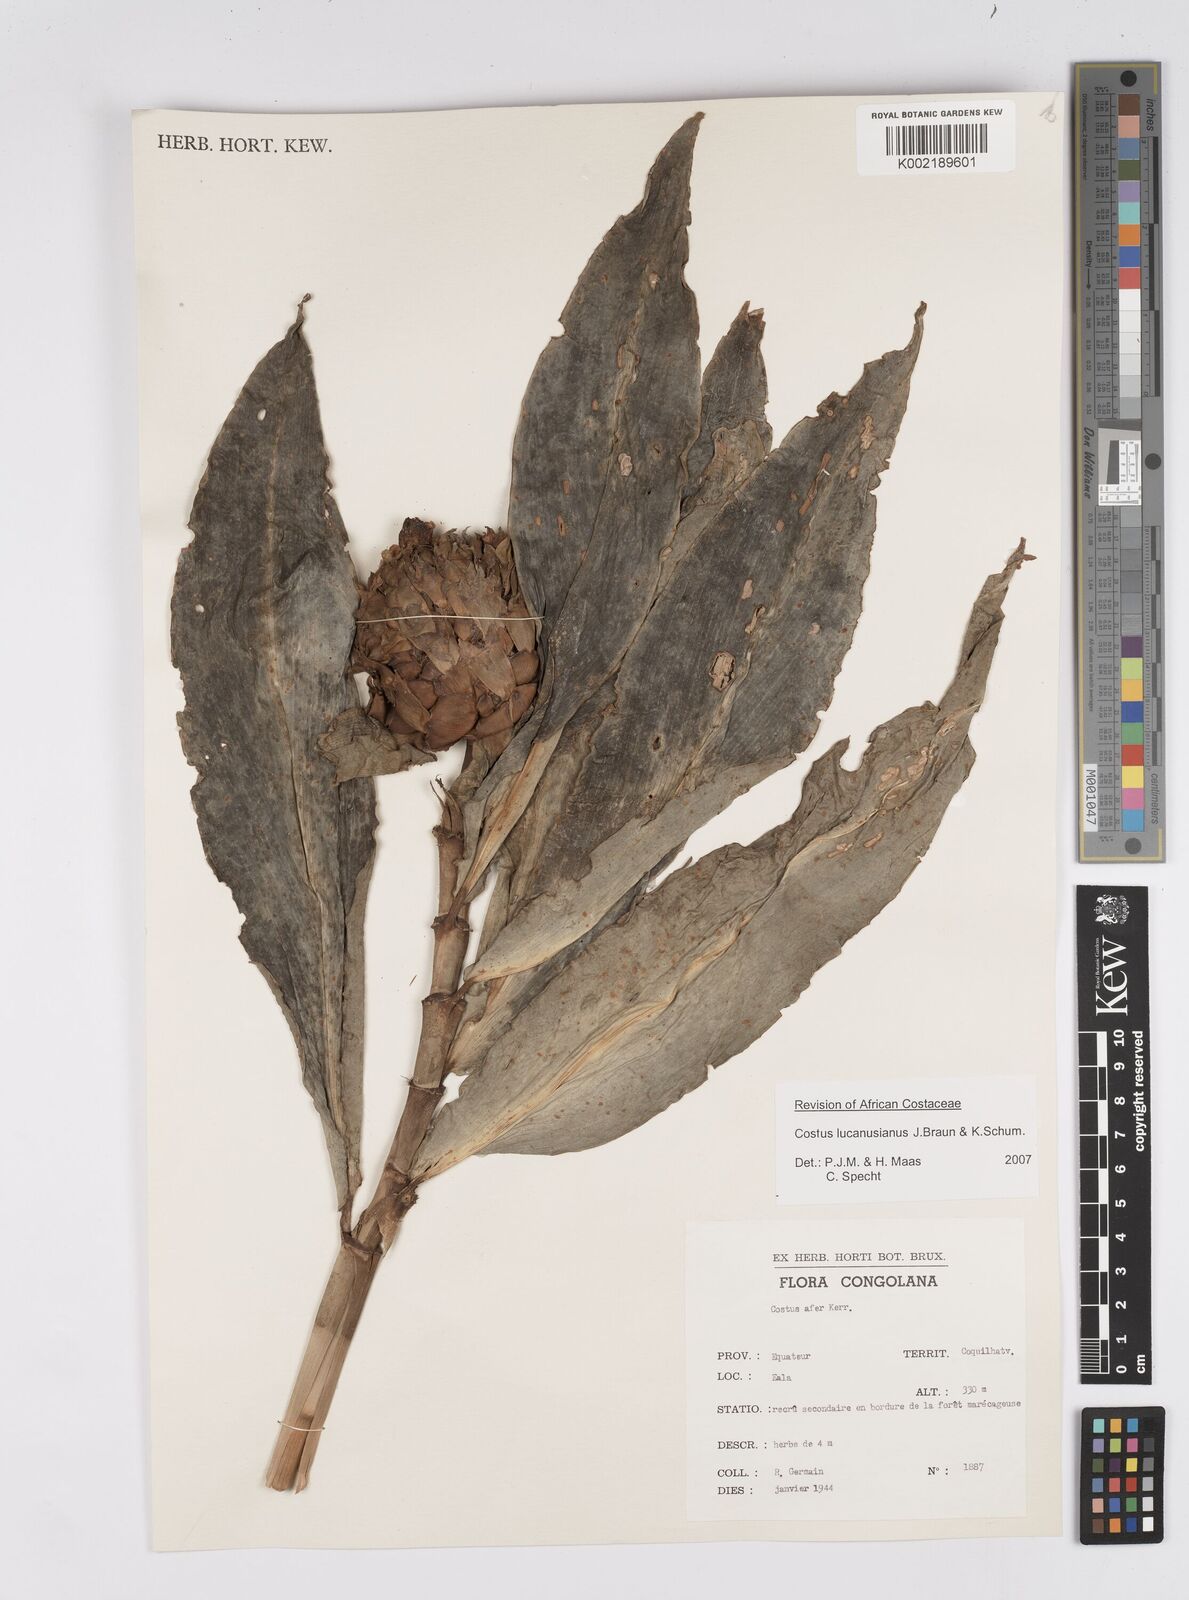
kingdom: Plantae
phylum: Tracheophyta
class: Liliopsida
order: Zingiberales
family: Costaceae
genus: Costus
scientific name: Costus lucanusianus
